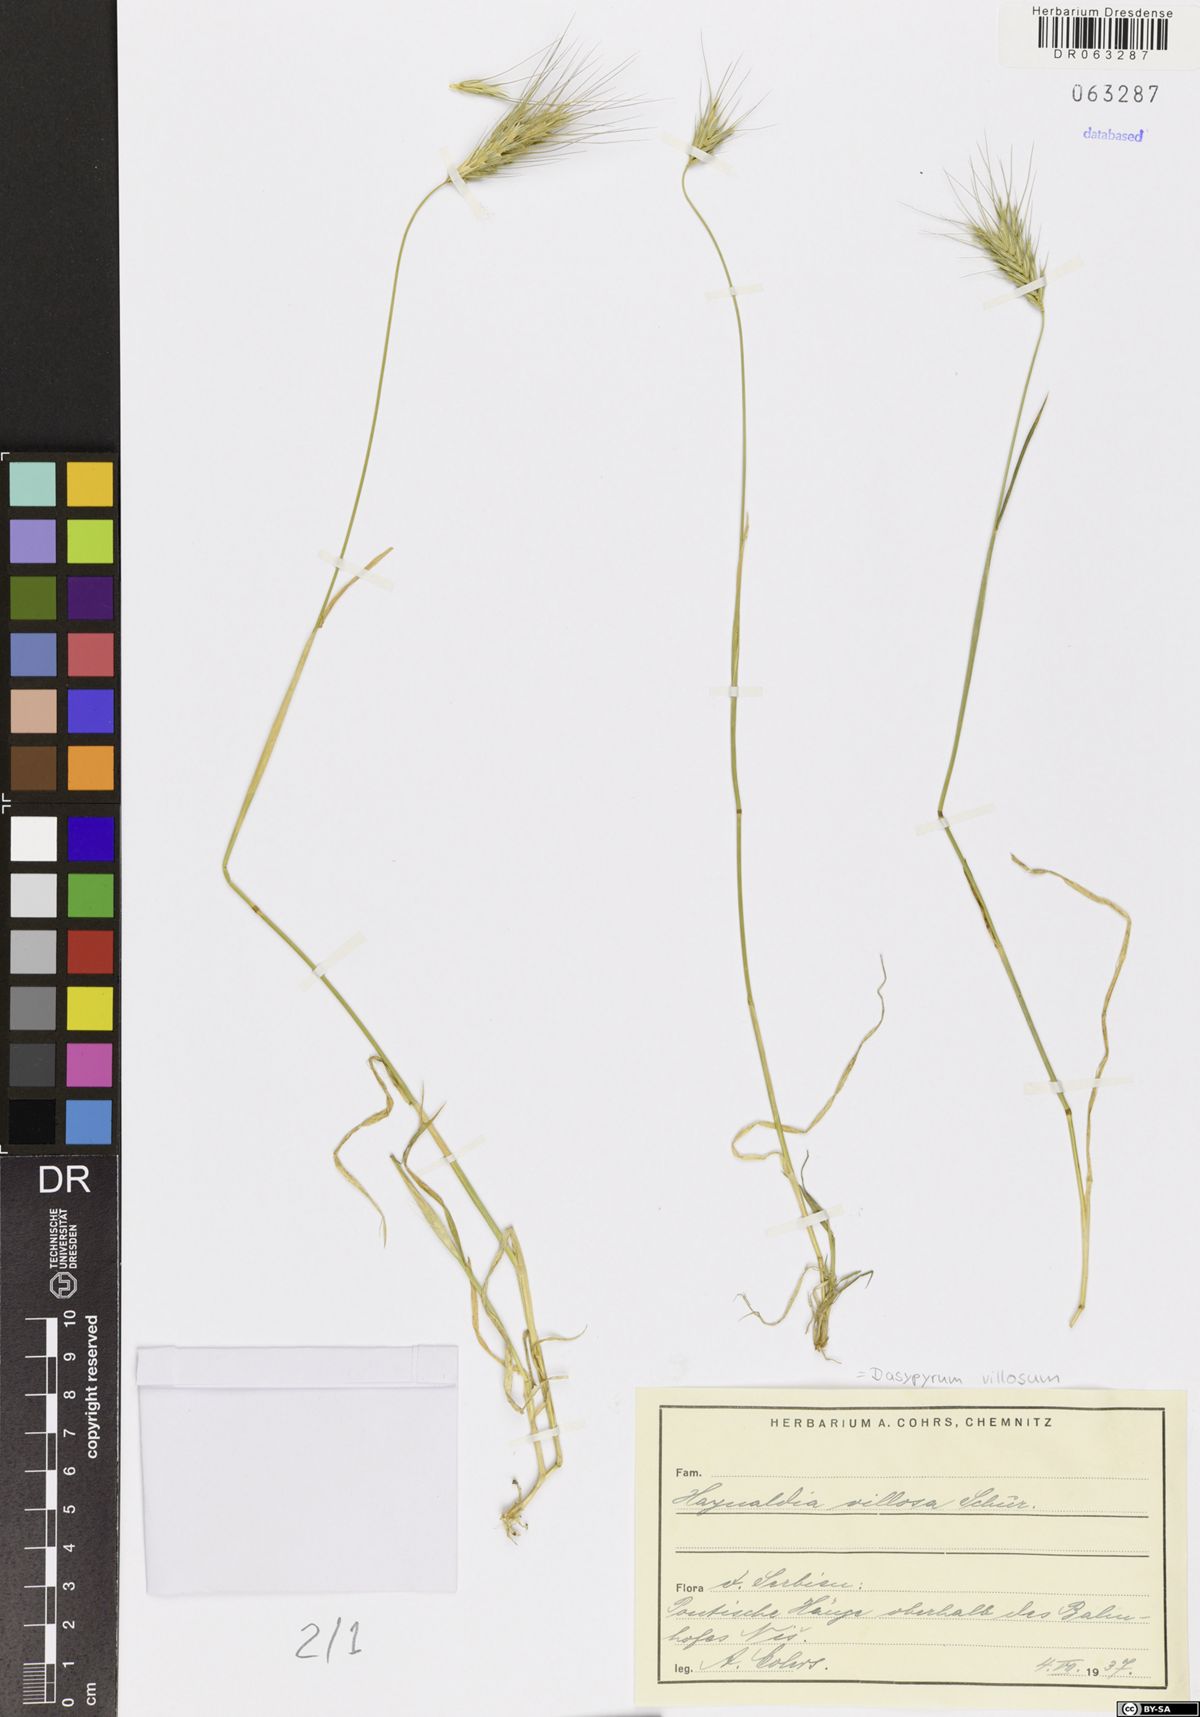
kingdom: Plantae
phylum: Tracheophyta
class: Liliopsida
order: Poales
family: Poaceae
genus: Dasypyrum
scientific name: Dasypyrum villosum
